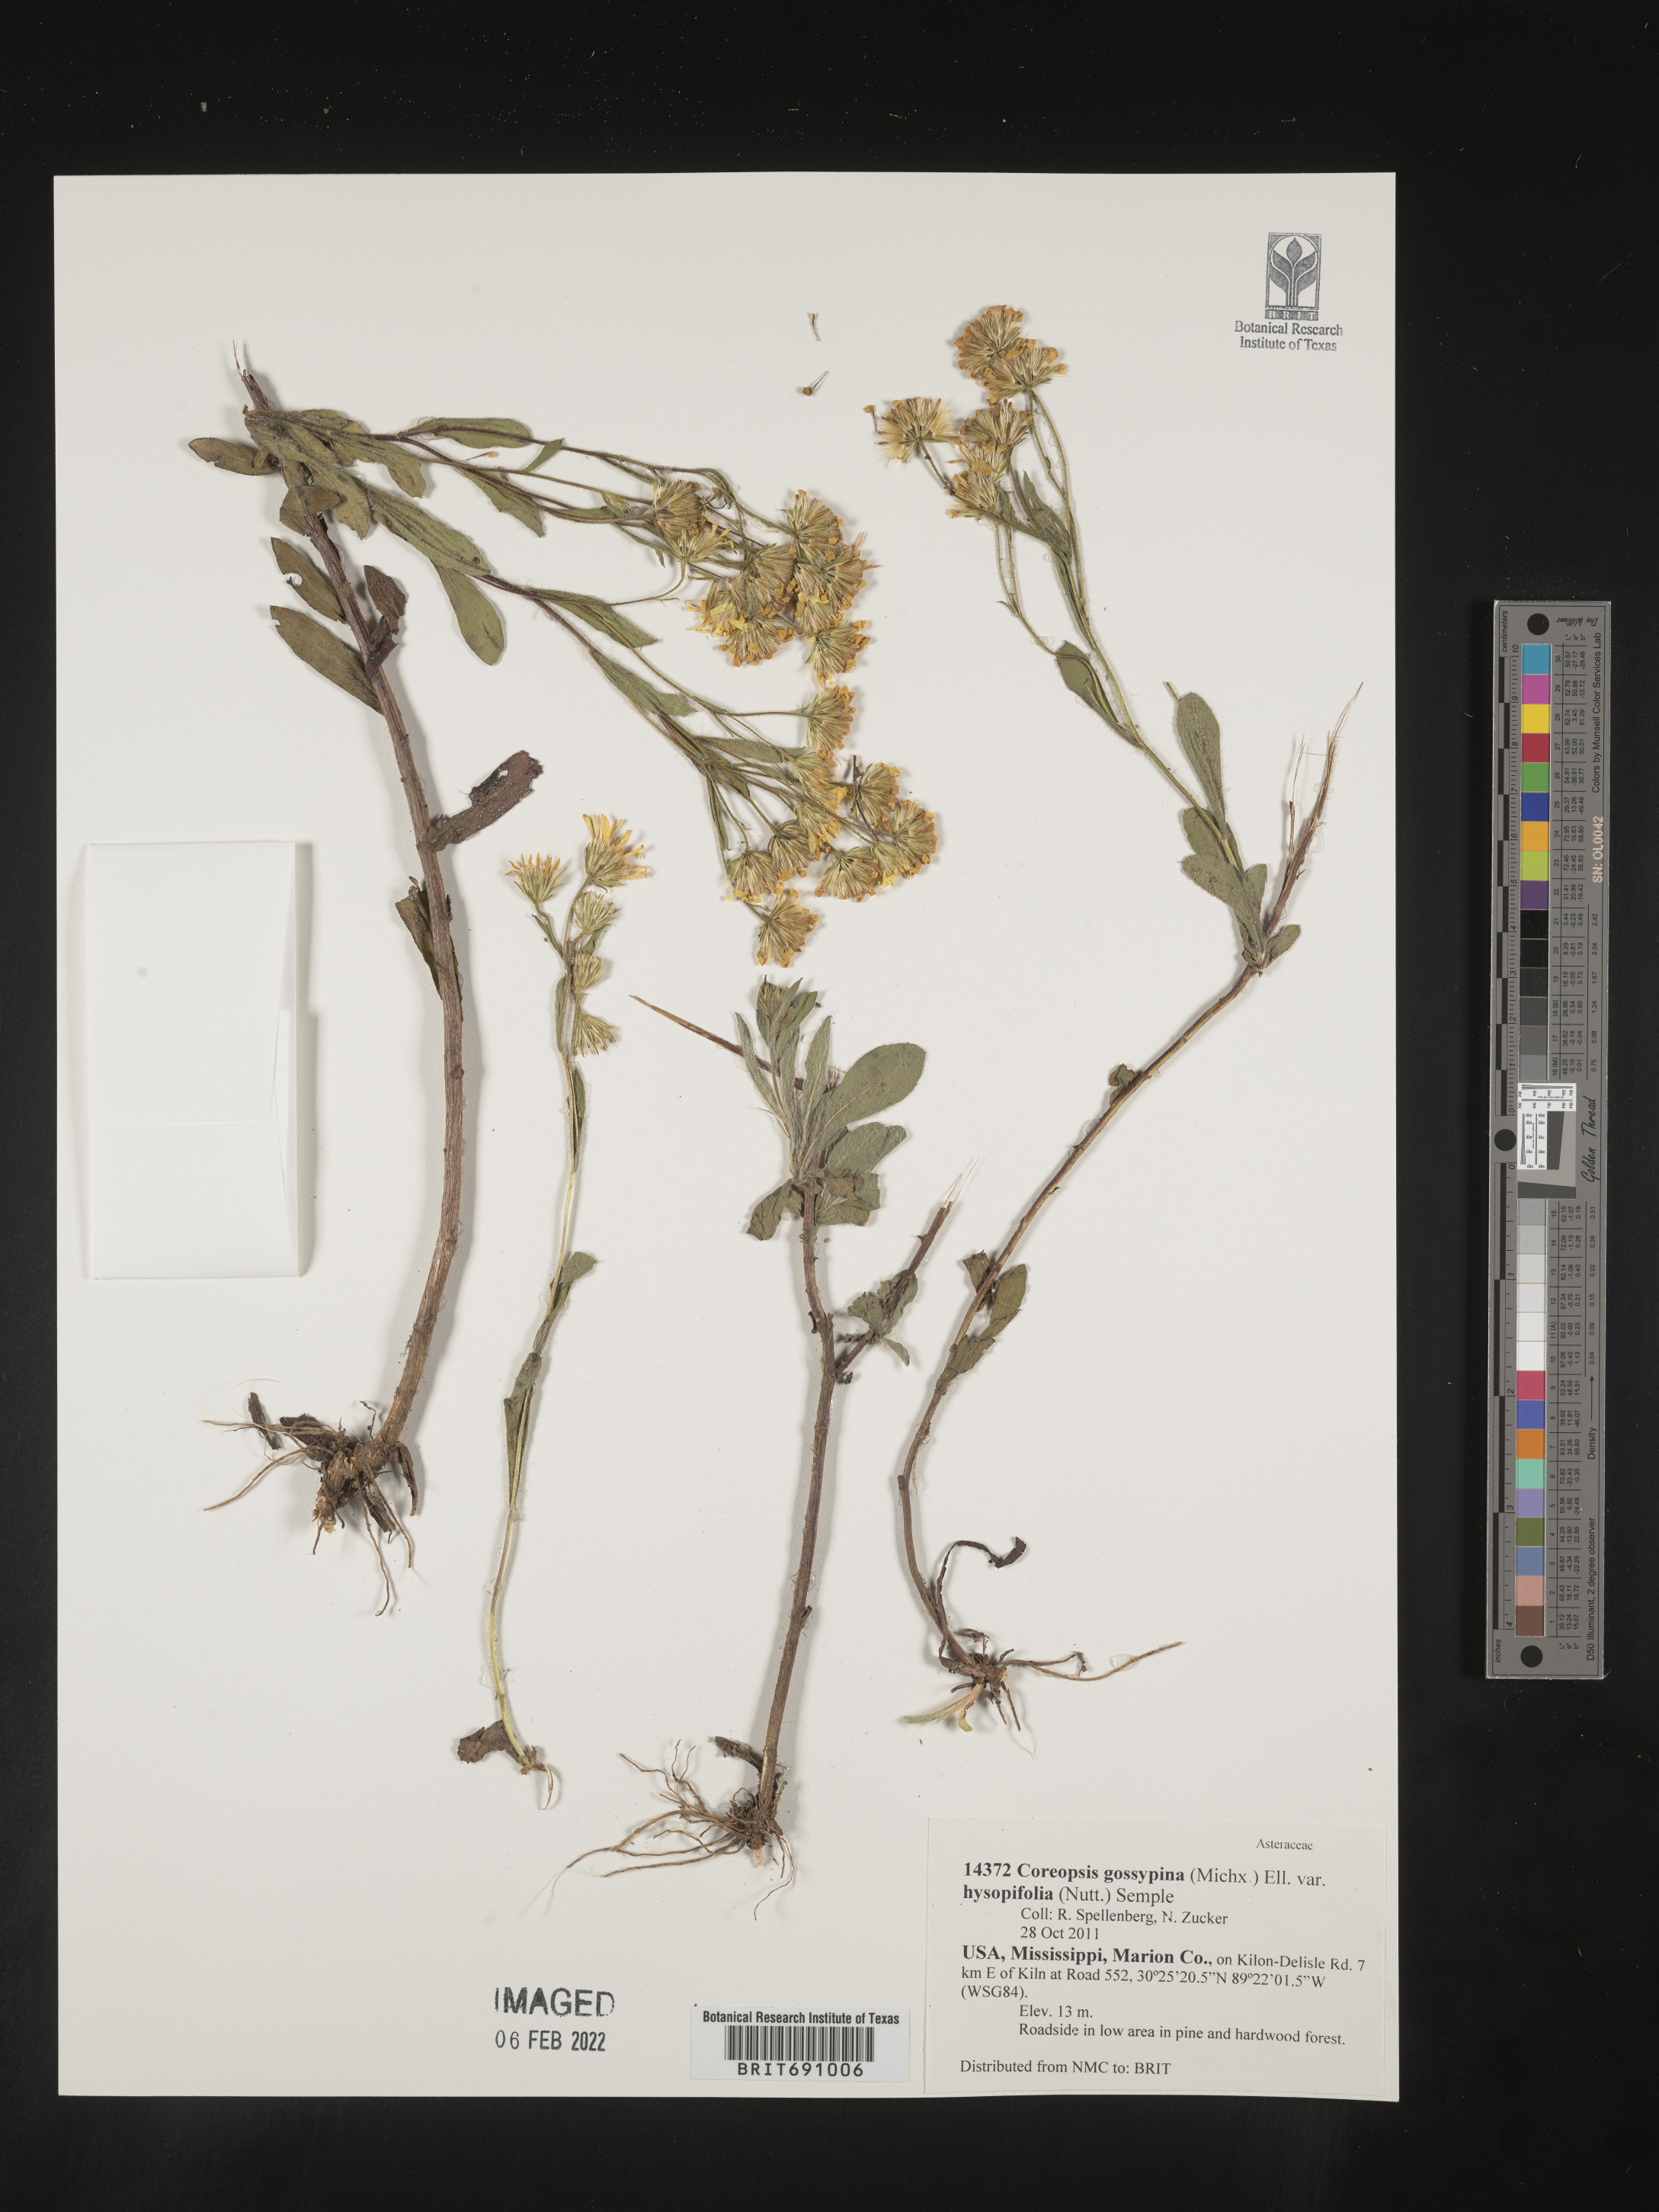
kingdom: Plantae
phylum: Tracheophyta
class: Magnoliopsida
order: Asterales
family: Asteraceae
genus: Chrysopsis
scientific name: Chrysopsis gossypina
